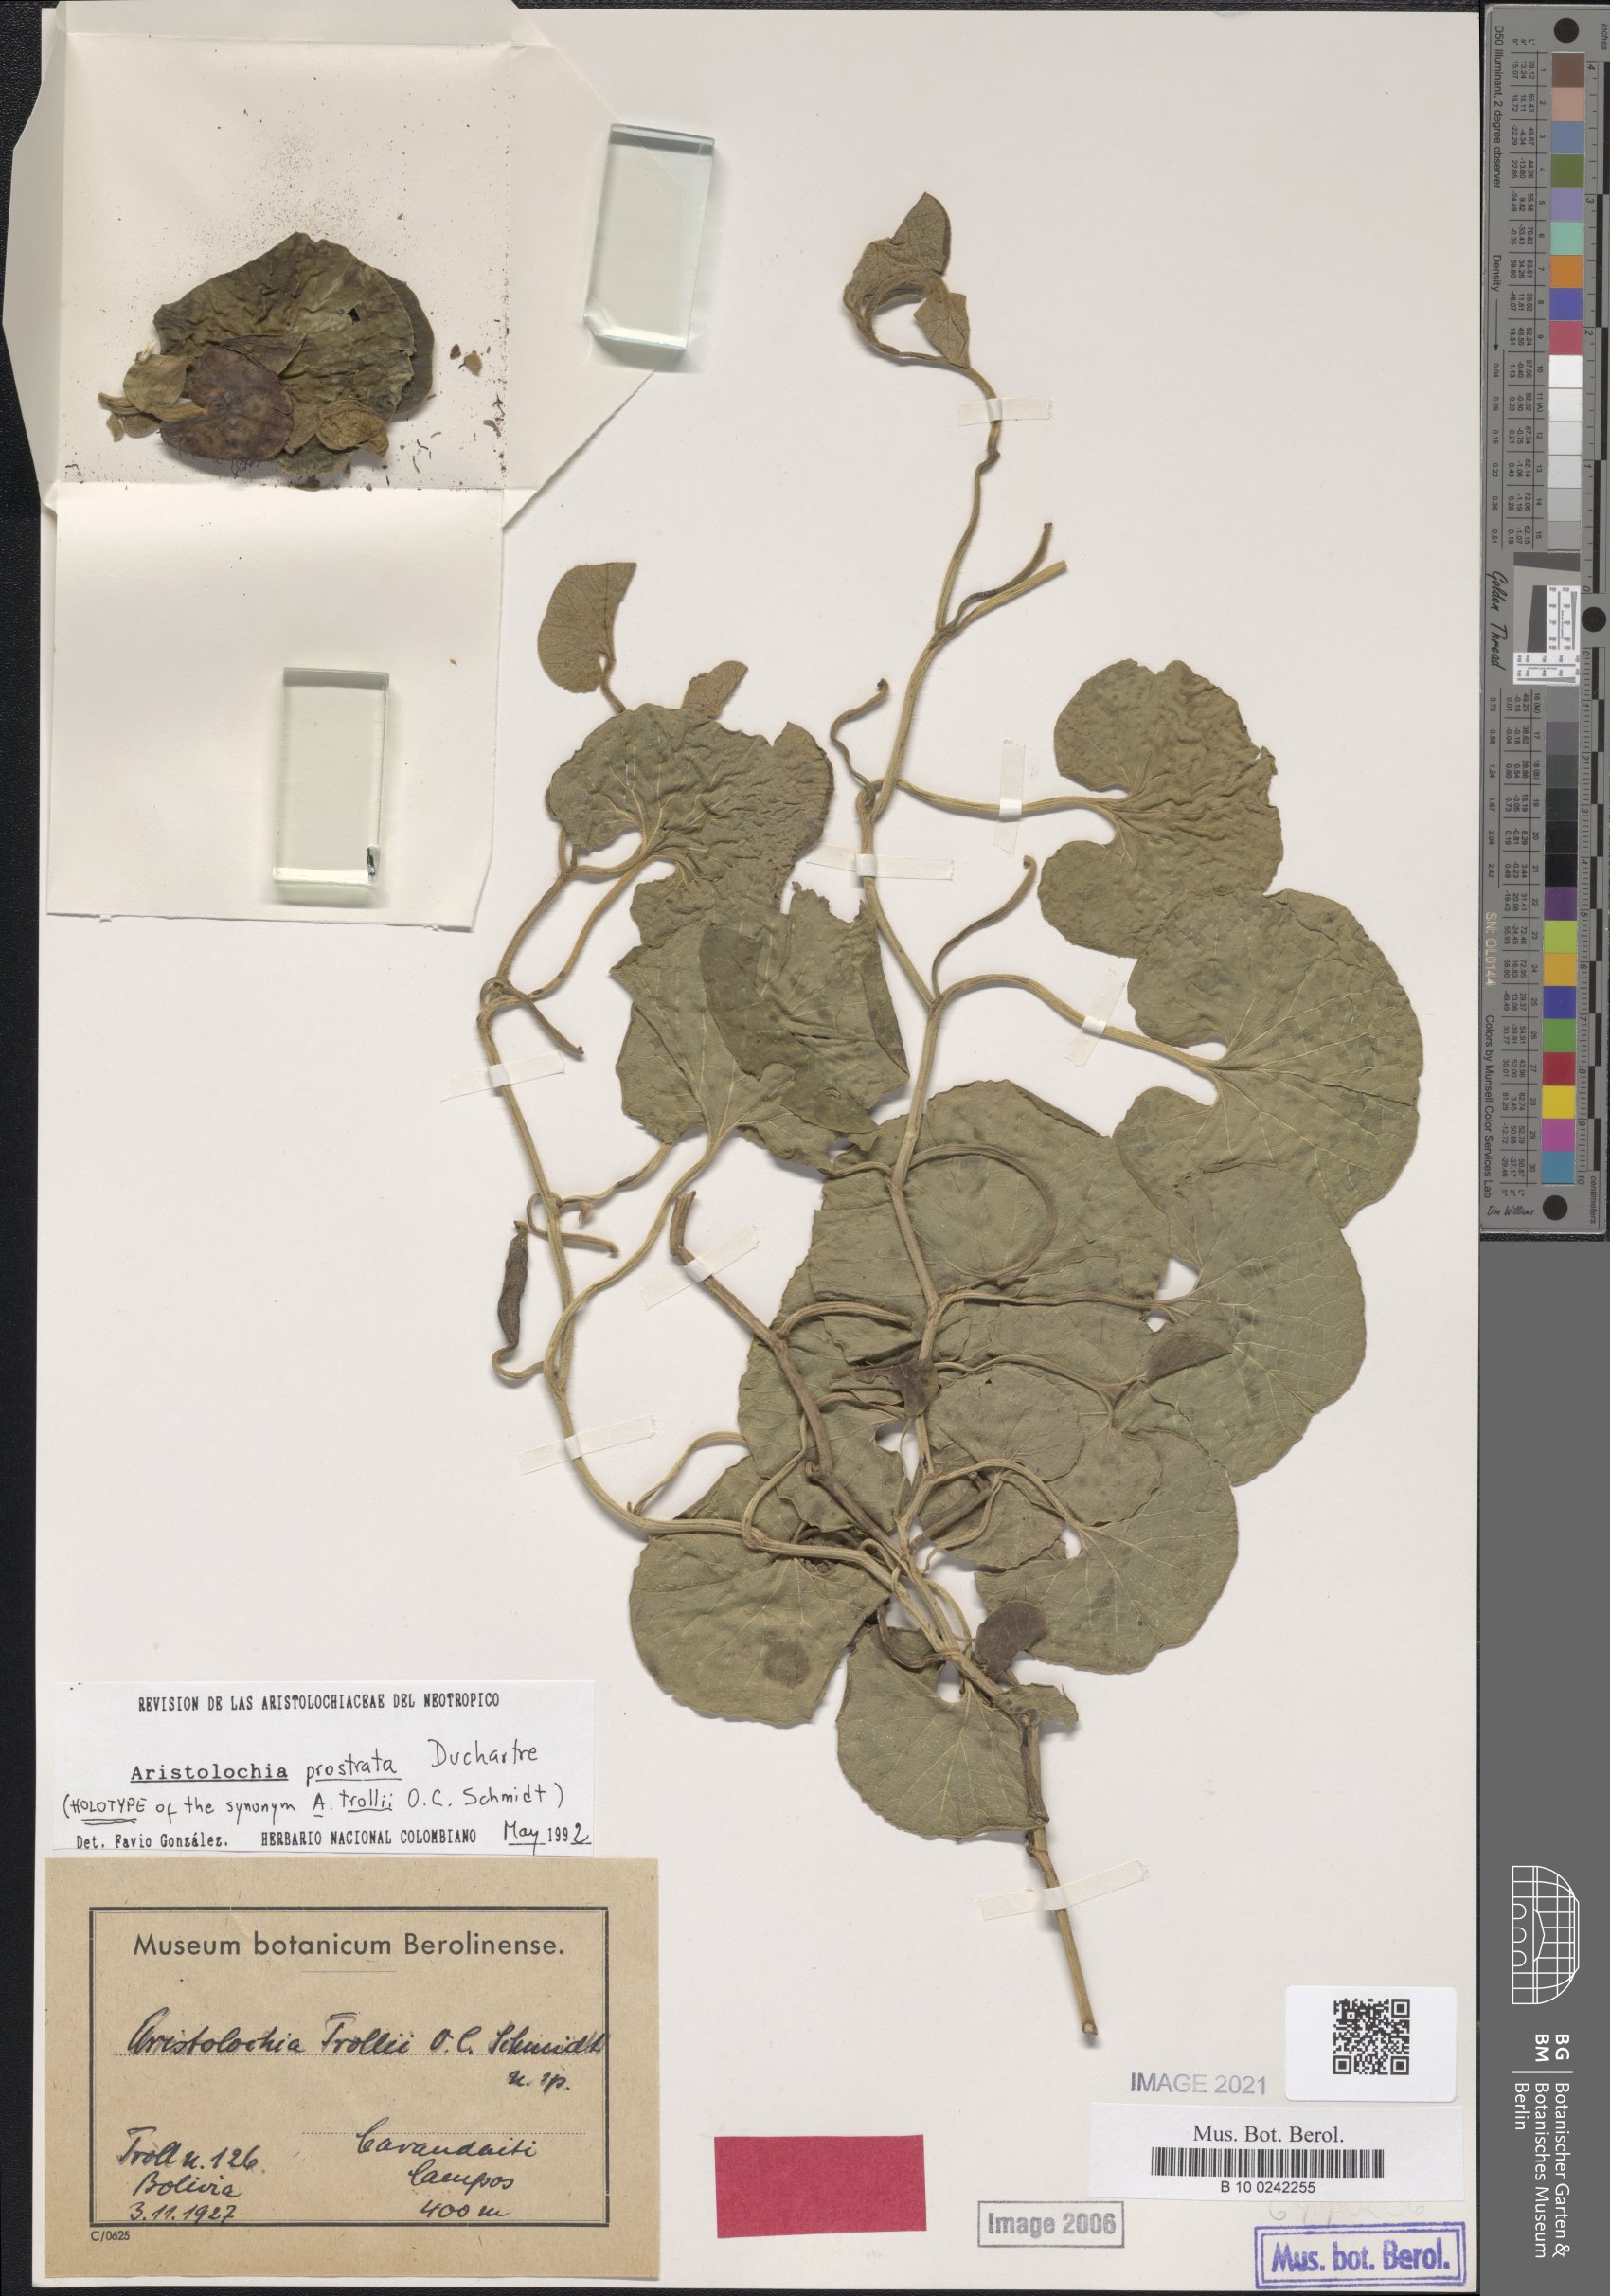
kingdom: Plantae
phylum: Tracheophyta
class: Magnoliopsida
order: Piperales
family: Aristolochiaceae
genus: Aristolochia
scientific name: Aristolochia prostrata
